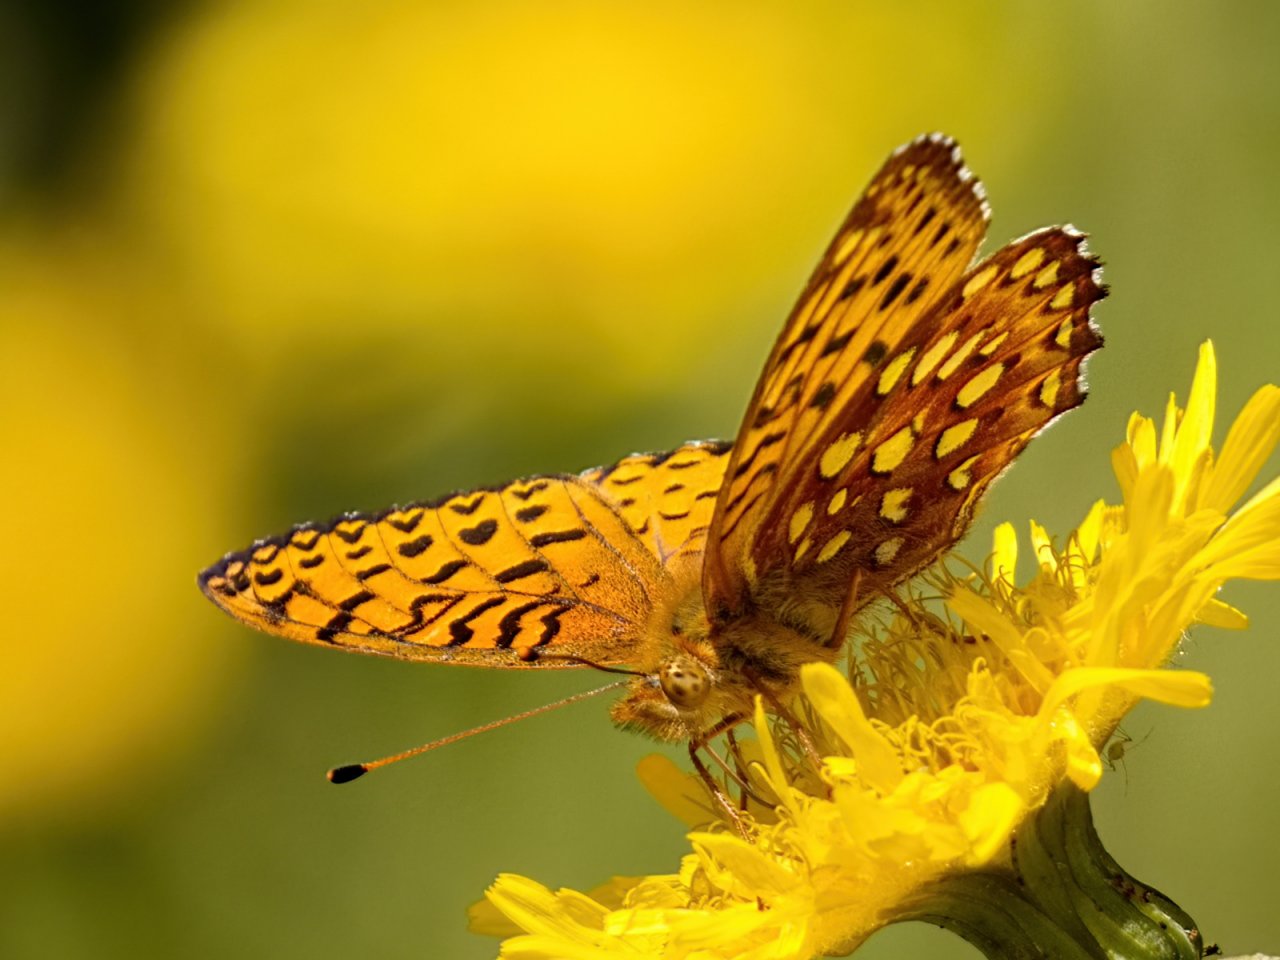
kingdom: Animalia
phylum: Arthropoda
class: Insecta
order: Lepidoptera
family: Nymphalidae
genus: Speyeria
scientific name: Speyeria aphrodite
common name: Aphrodite Fritillary
